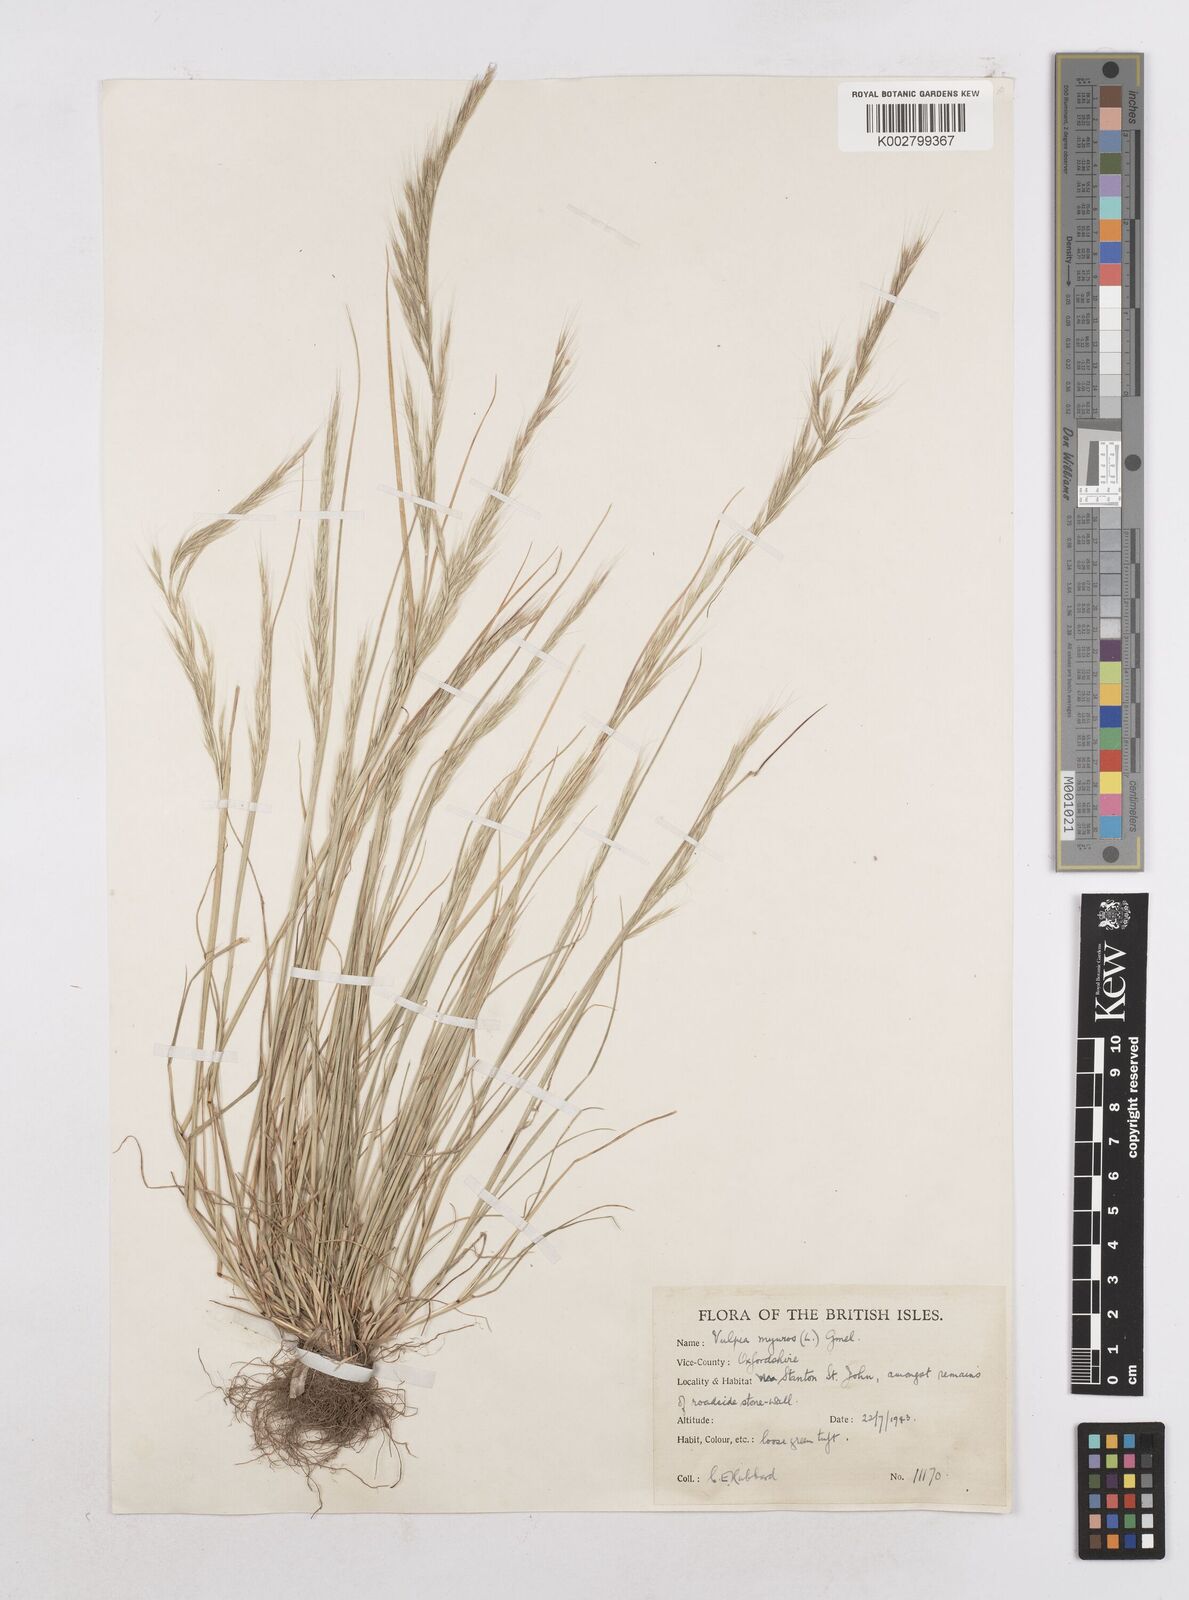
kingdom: Plantae
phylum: Tracheophyta
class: Liliopsida
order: Poales
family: Poaceae
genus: Festuca
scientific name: Festuca myuros
